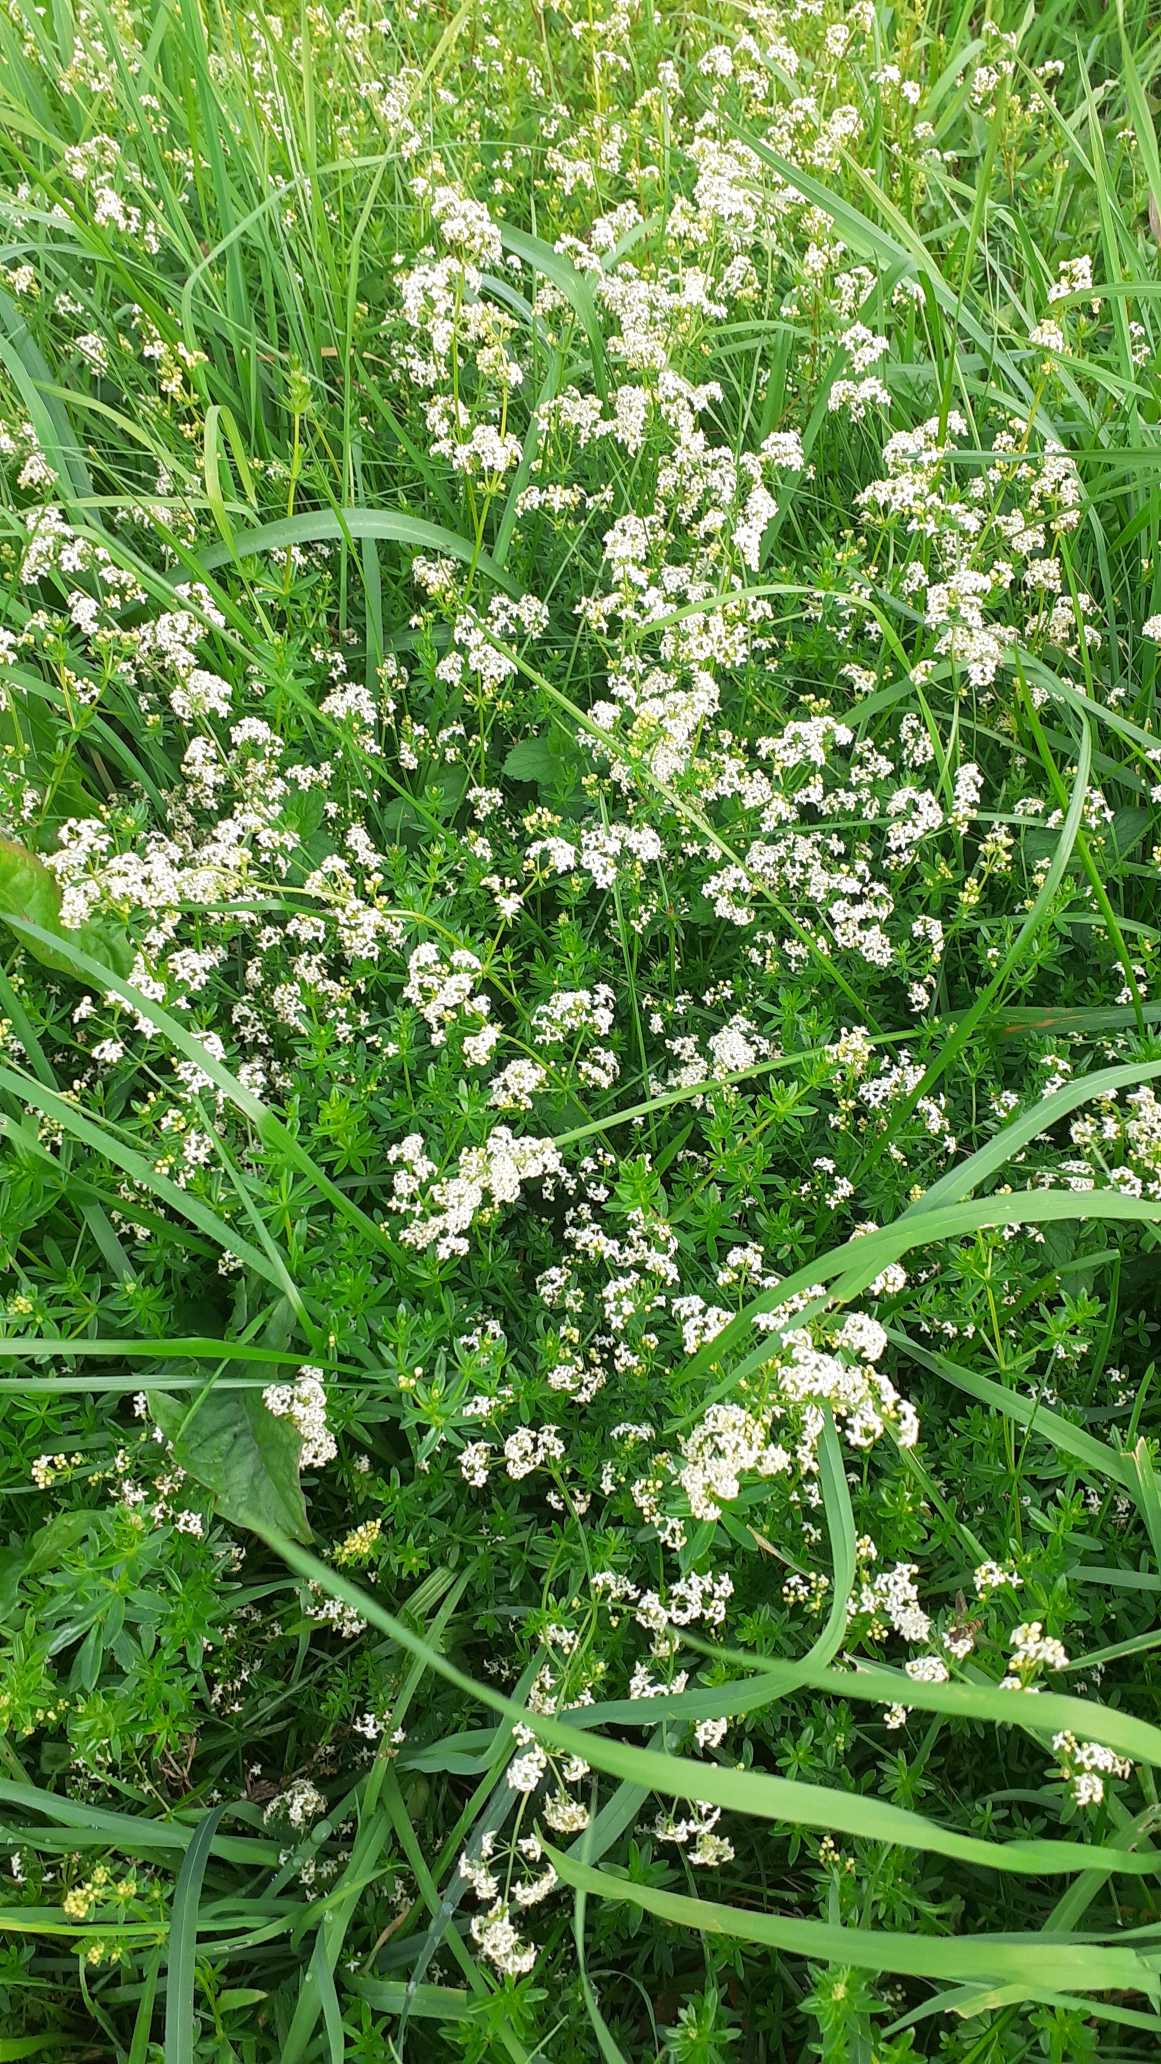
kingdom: Plantae
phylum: Tracheophyta
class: Magnoliopsida
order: Gentianales
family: Rubiaceae
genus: Galium
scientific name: Galium mollugo
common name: Hvid snerre
